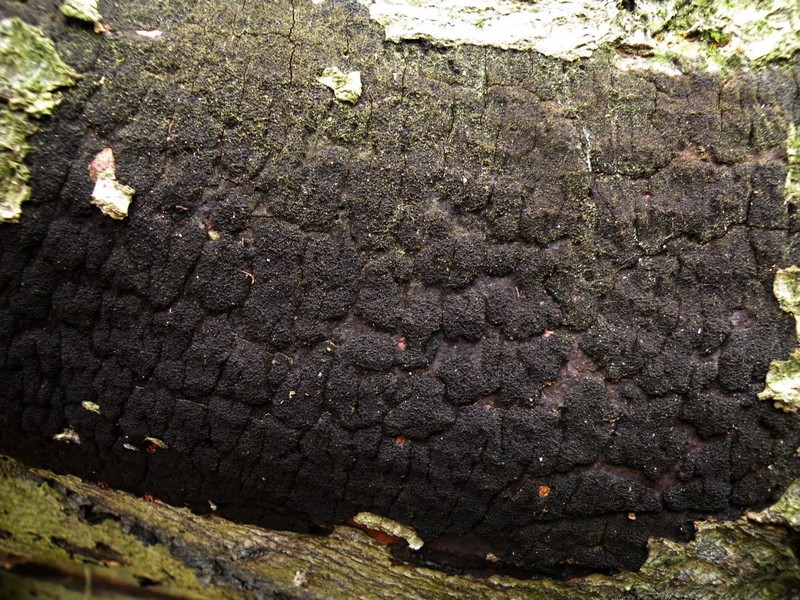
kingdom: Fungi
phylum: Ascomycota
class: Sordariomycetes
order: Xylariales
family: Diatrypaceae
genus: Eutypa
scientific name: Eutypa spinosa
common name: grov kulskorpe
